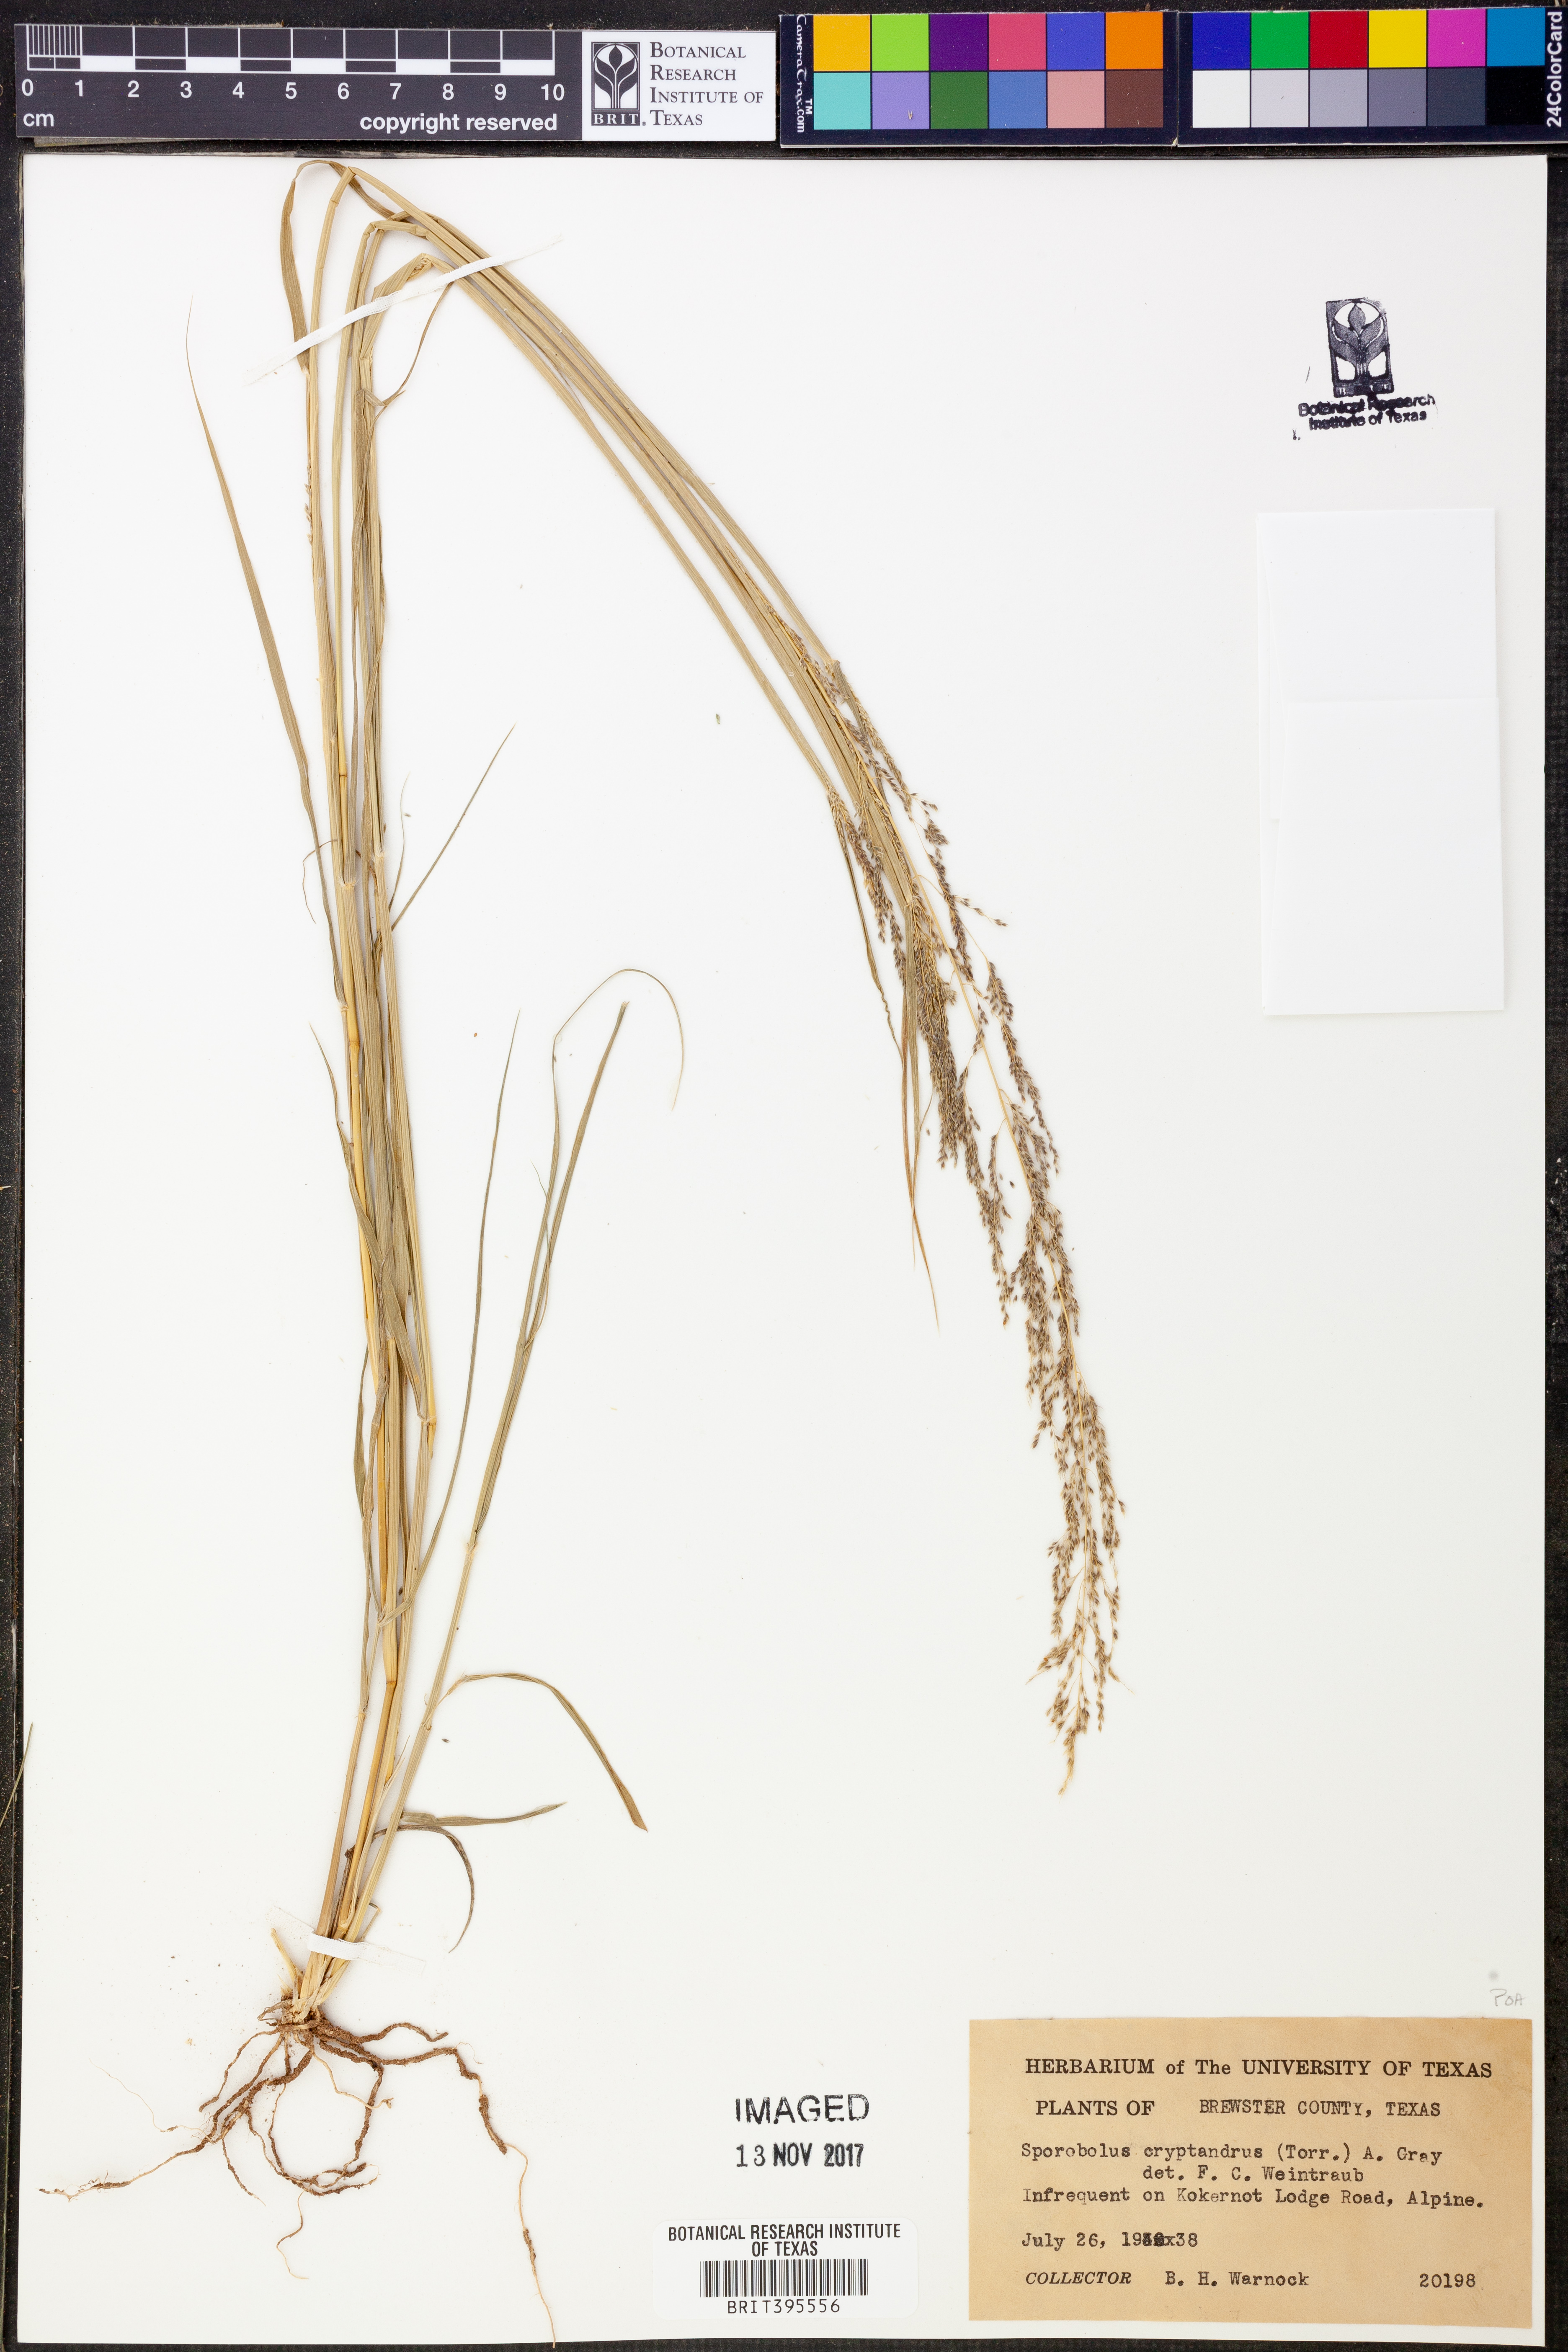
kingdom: Plantae
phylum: Tracheophyta
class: Liliopsida
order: Poales
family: Poaceae
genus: Sporobolus
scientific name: Sporobolus cryptandrus
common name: Sand dropseed
